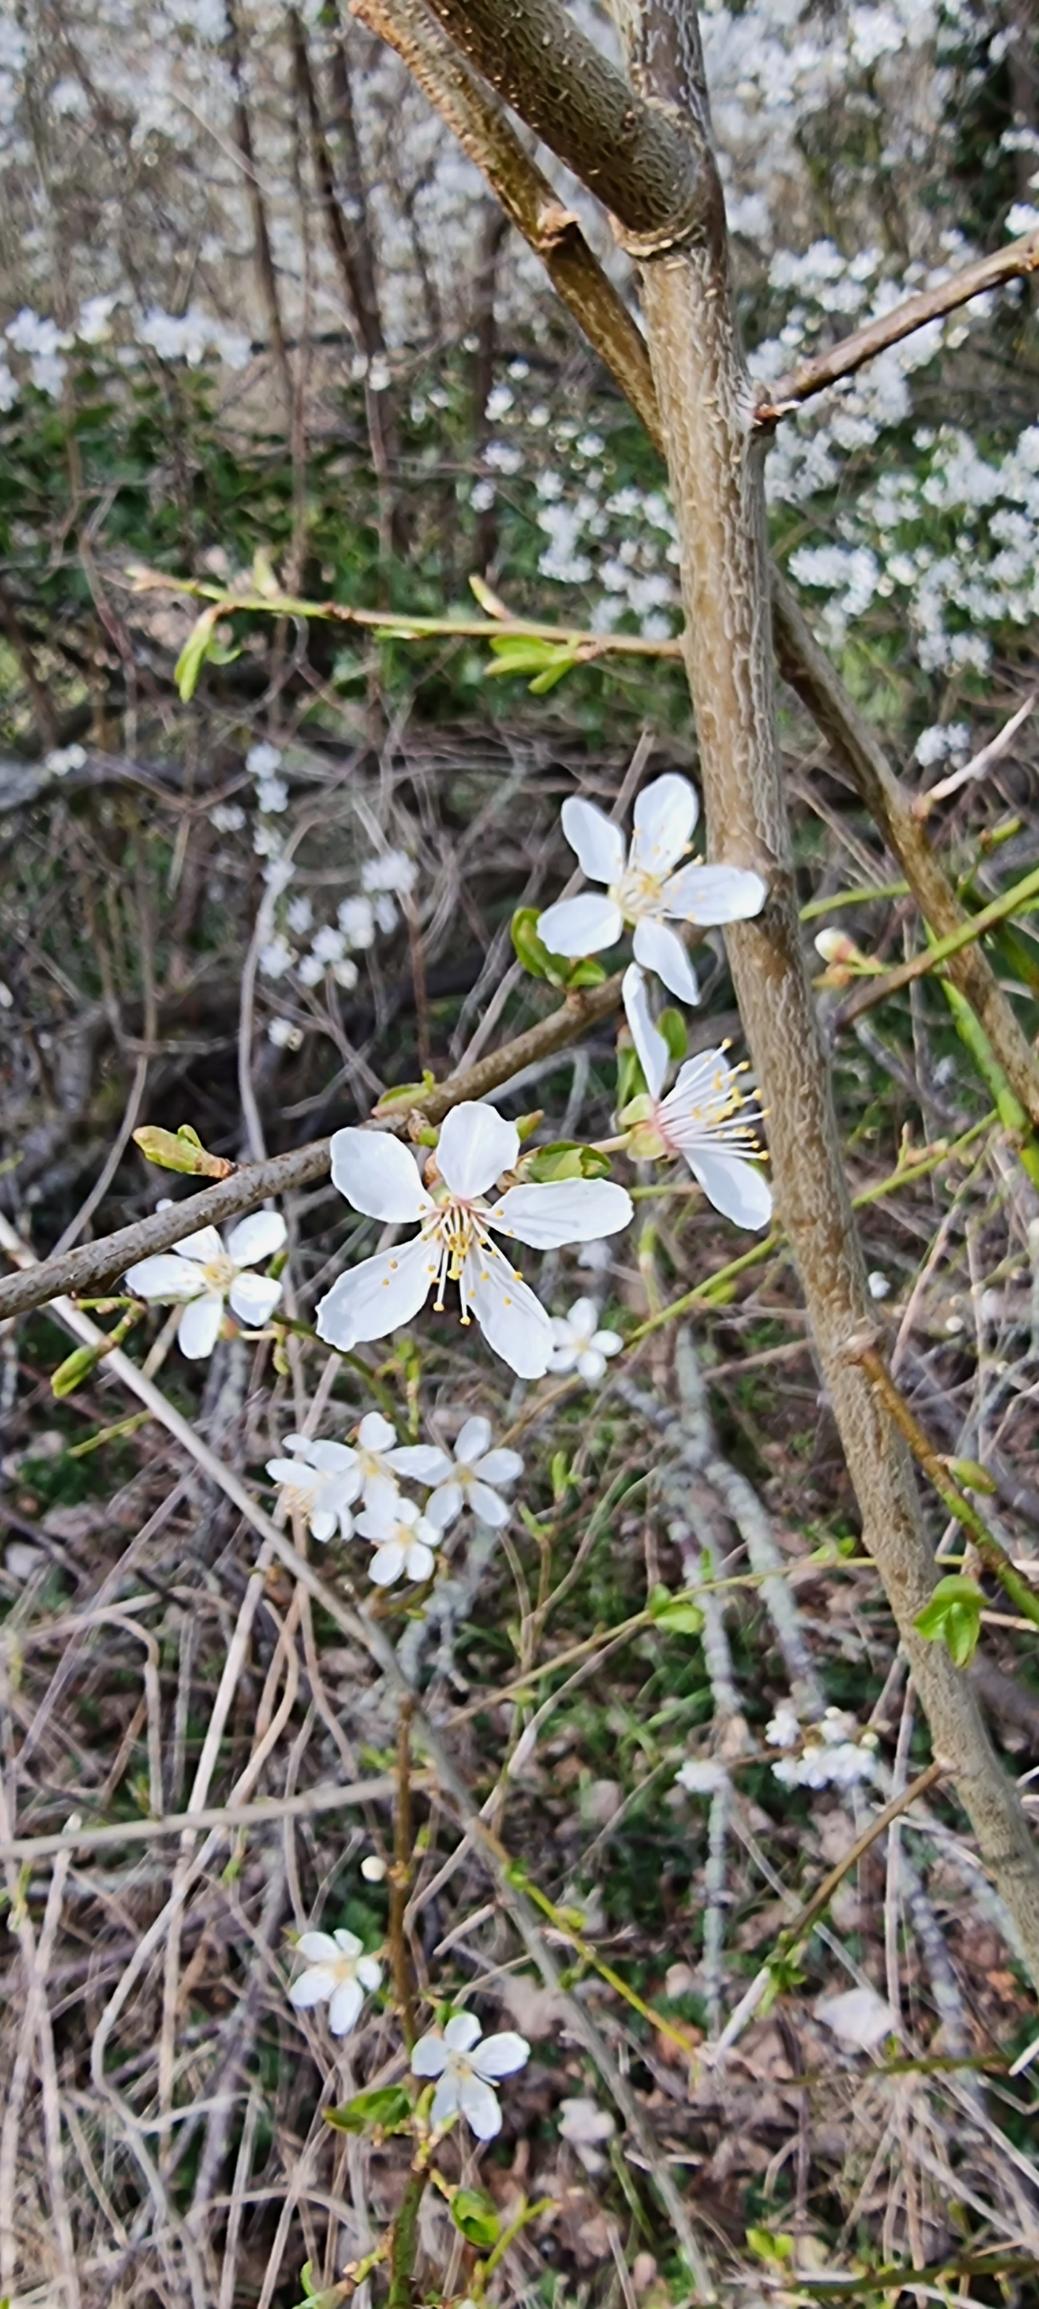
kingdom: Plantae
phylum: Tracheophyta
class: Magnoliopsida
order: Rosales
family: Rosaceae
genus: Prunus
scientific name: Prunus cerasifera
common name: Mirabel
